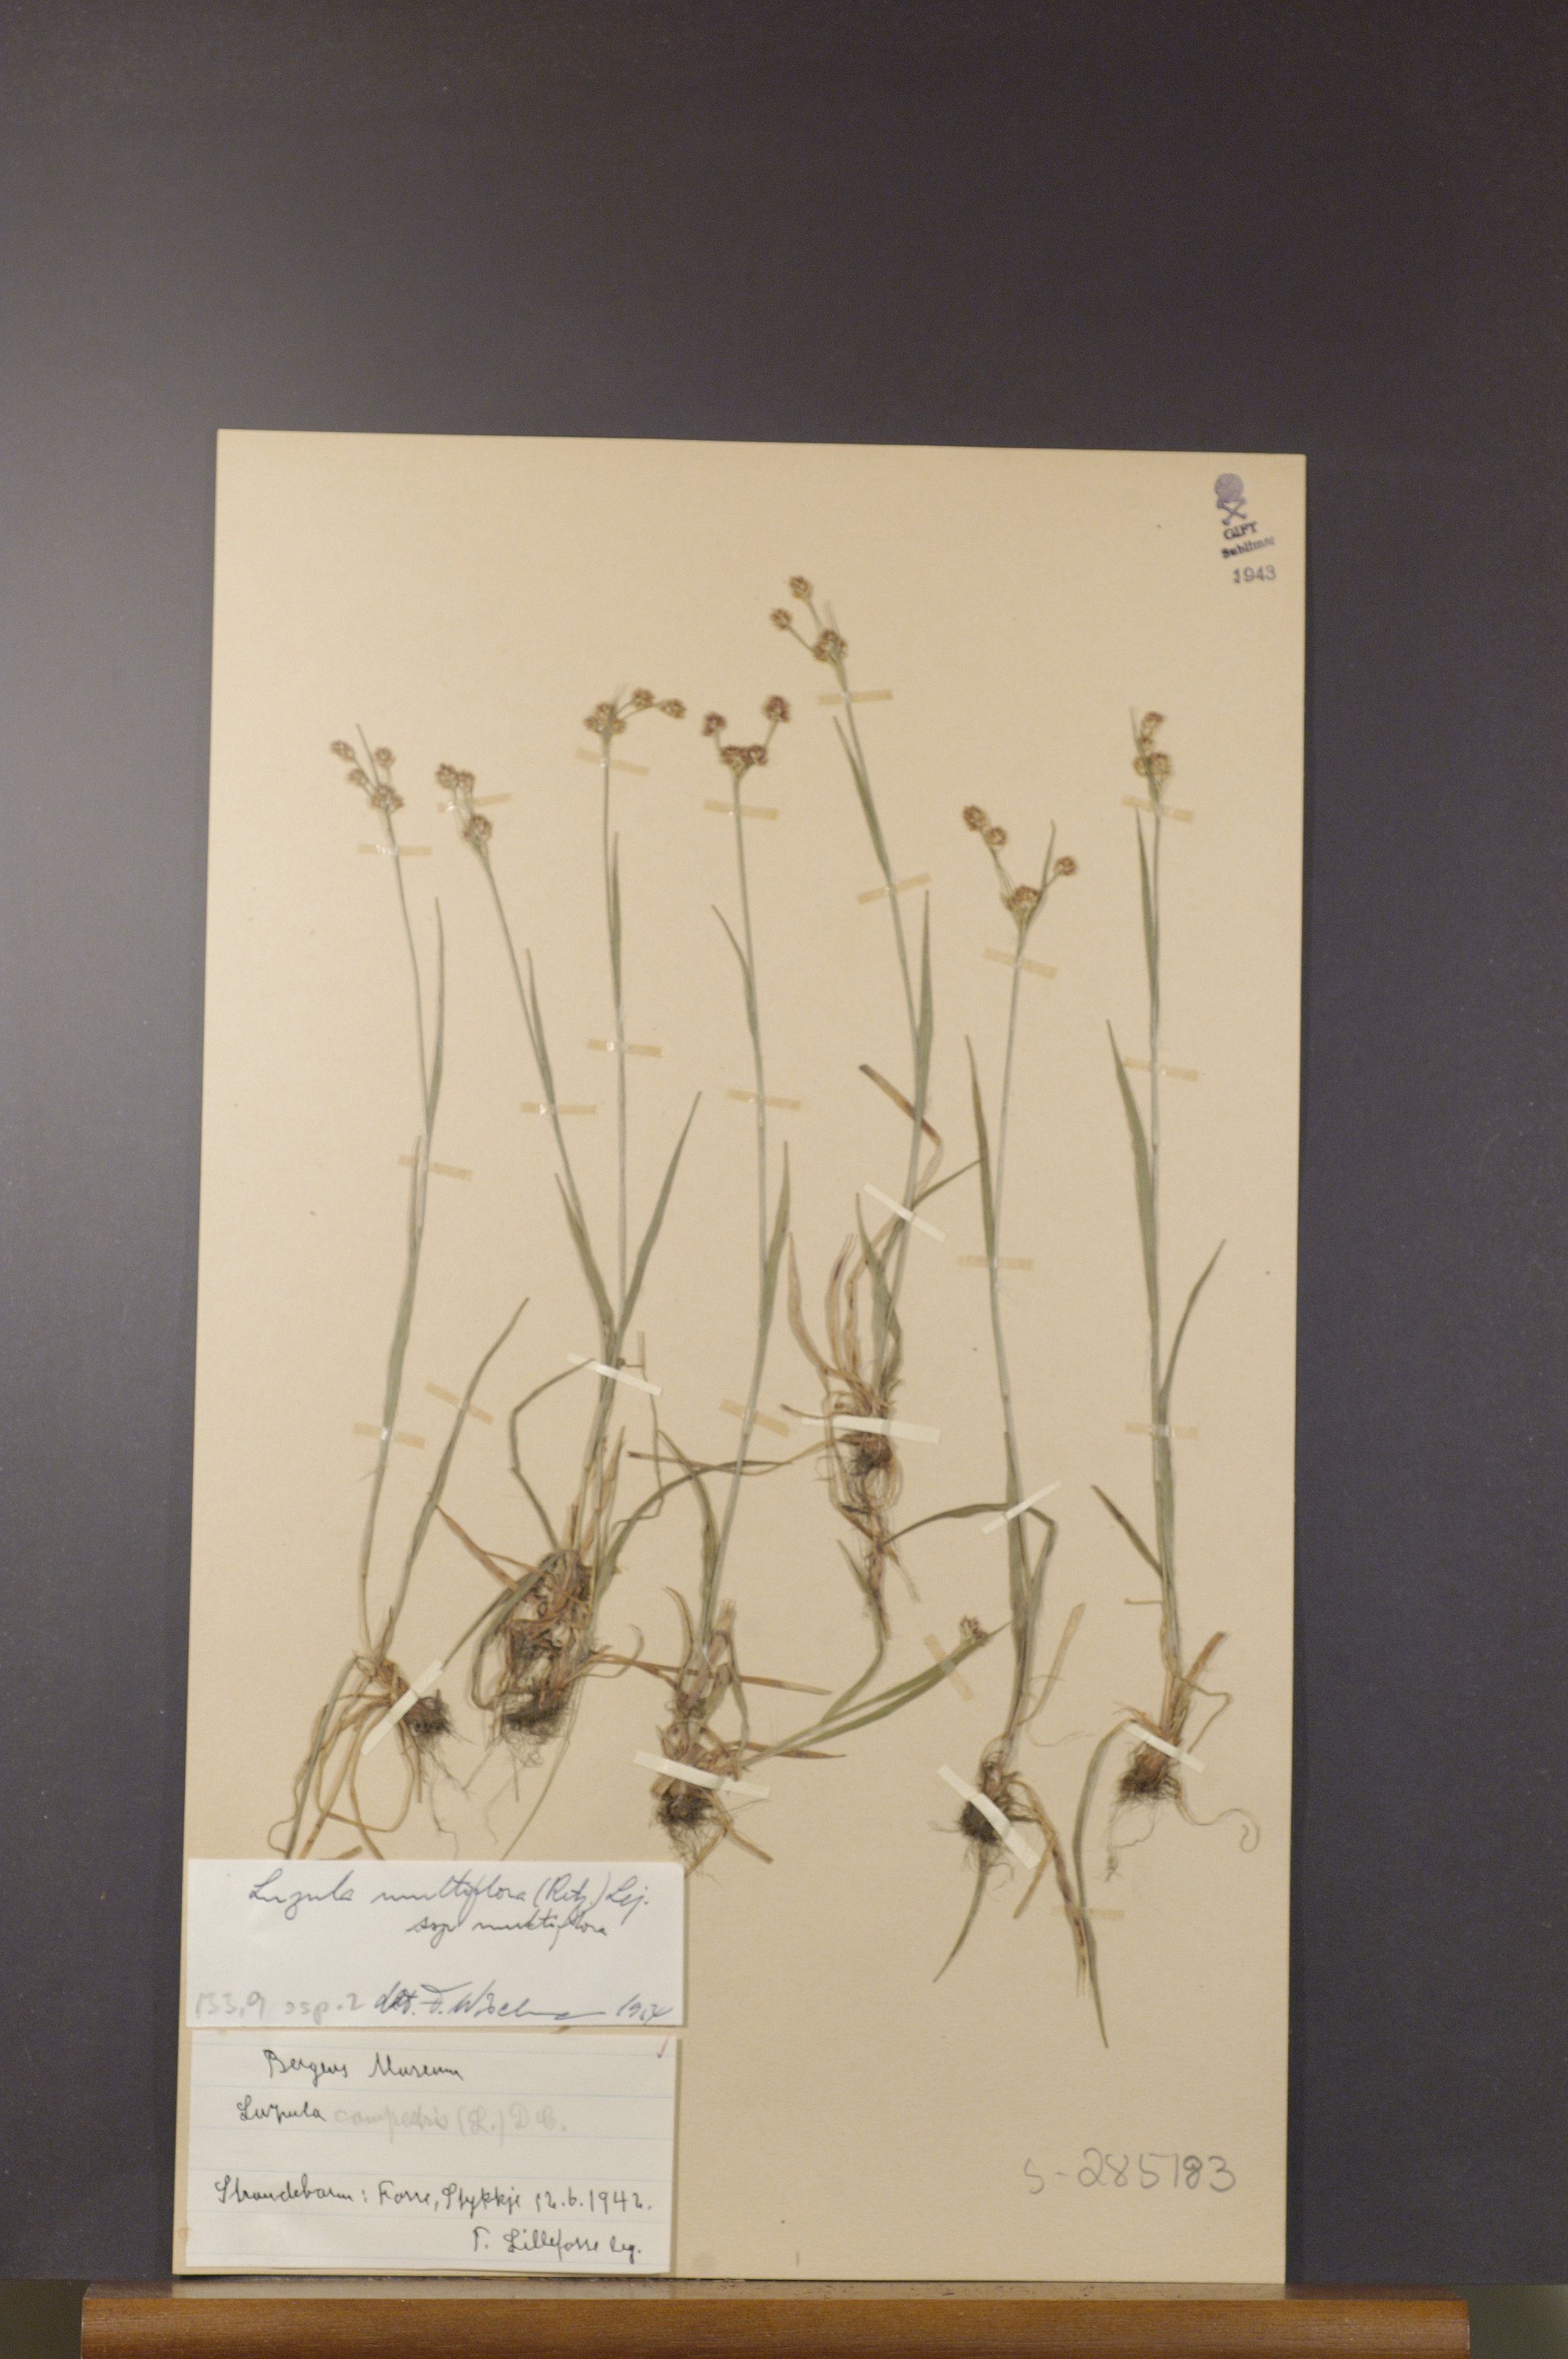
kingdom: Plantae
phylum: Tracheophyta
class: Liliopsida
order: Poales
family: Juncaceae
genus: Luzula
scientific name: Luzula multiflora
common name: Heath wood-rush
